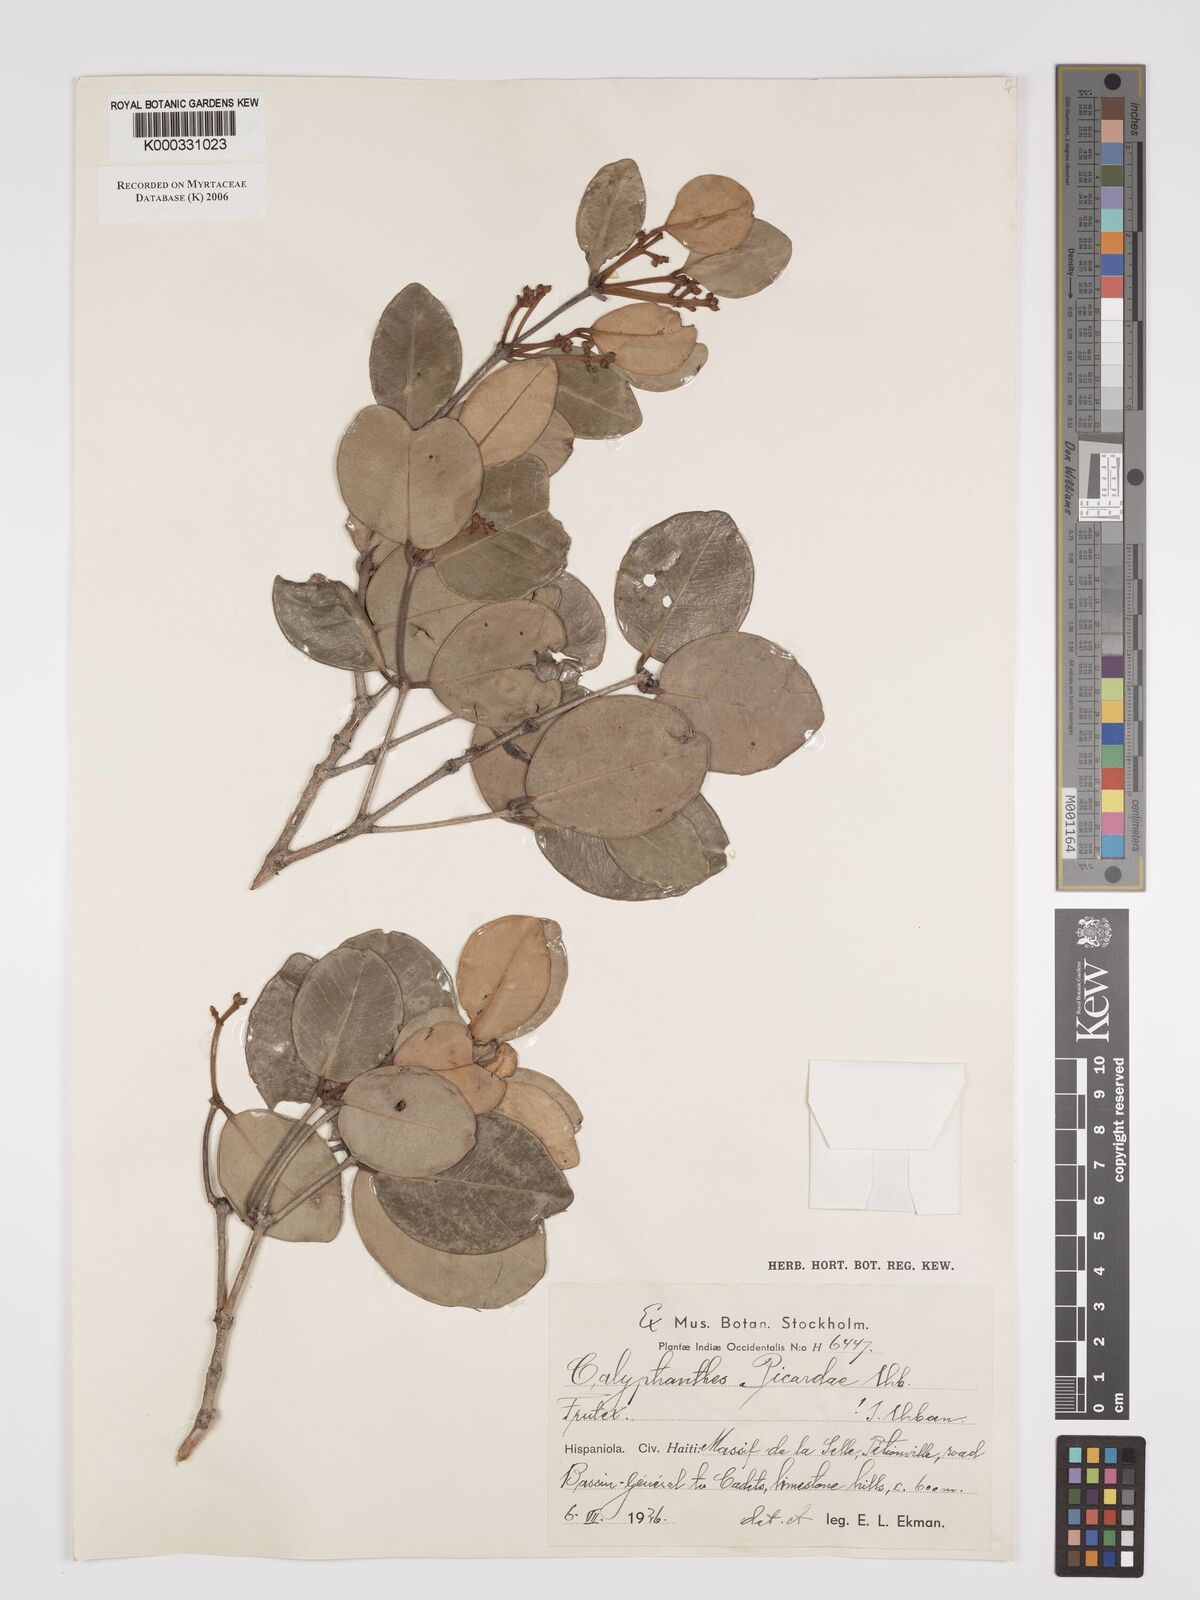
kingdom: Plantae
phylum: Tracheophyta
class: Magnoliopsida
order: Myrtales
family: Myrtaceae
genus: Myrcia
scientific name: Myrcia neopicardae
